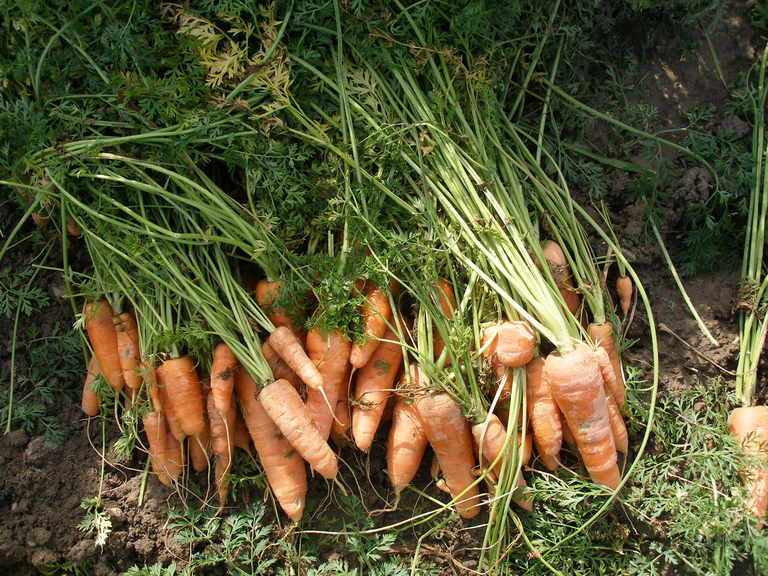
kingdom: Plantae
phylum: Tracheophyta
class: Magnoliopsida
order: Apiales
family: Apiaceae
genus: Daucus
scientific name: Daucus carota
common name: Wild carrot
